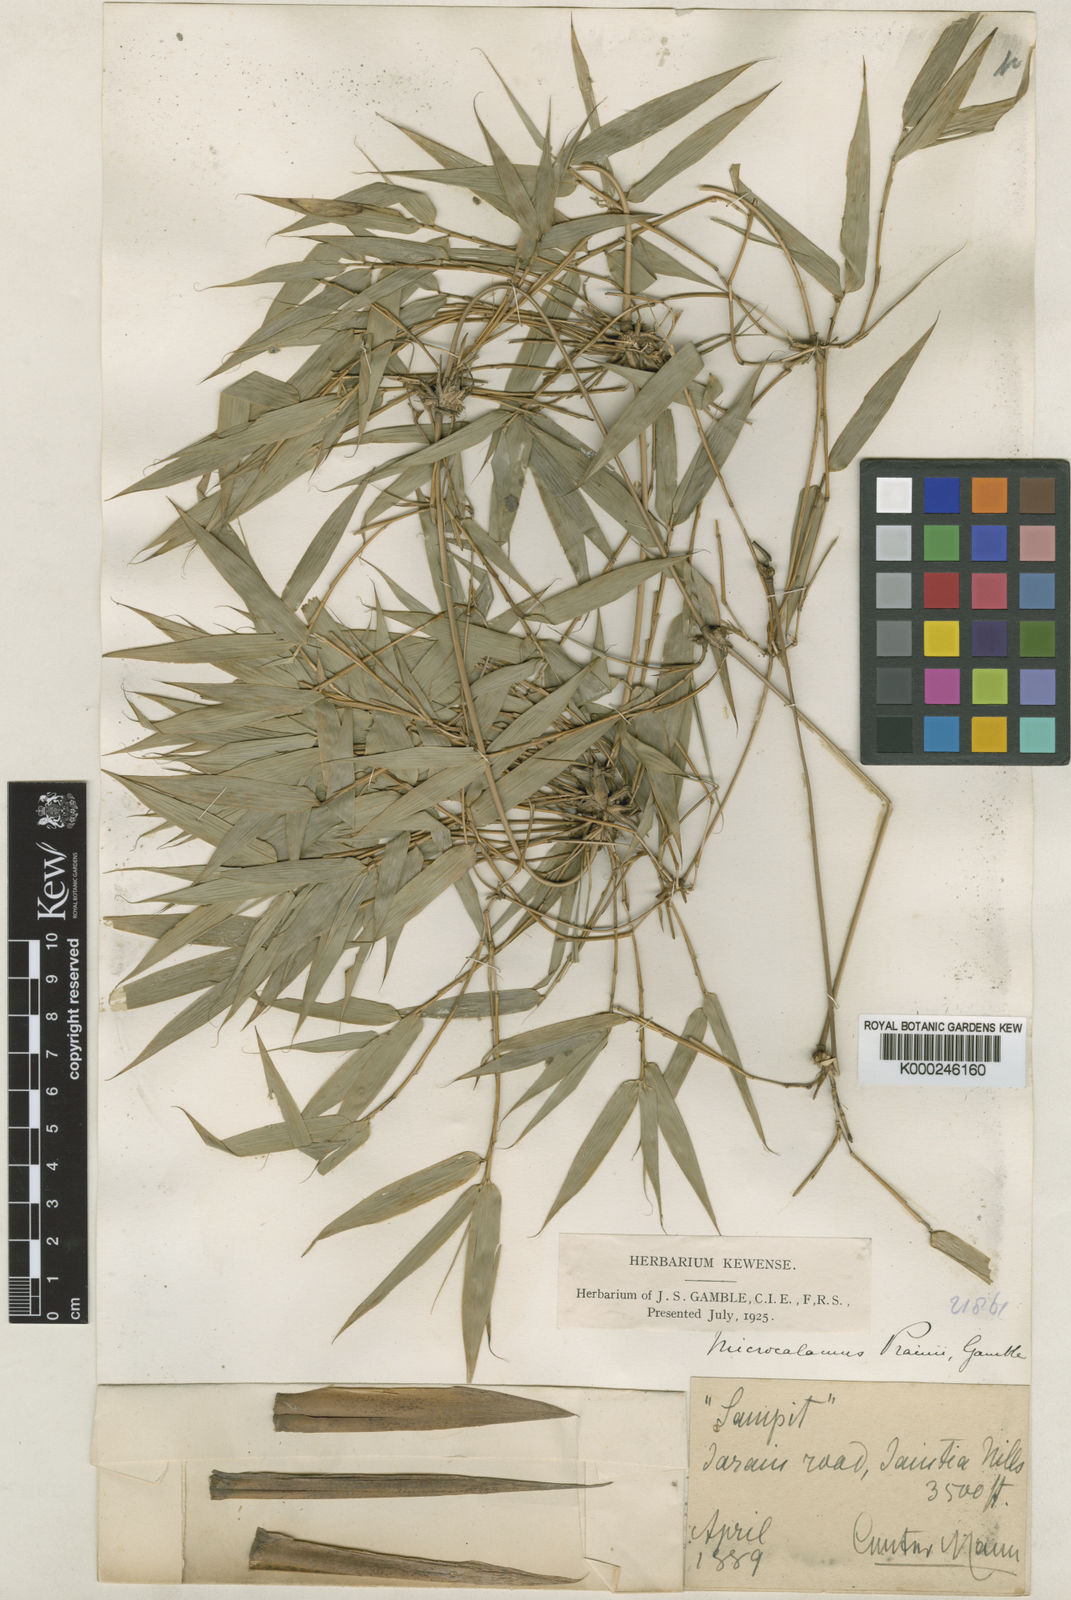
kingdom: Plantae
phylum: Tracheophyta
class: Liliopsida
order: Poales
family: Poaceae
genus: Neomicrocalamus
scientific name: Neomicrocalamus prainii
